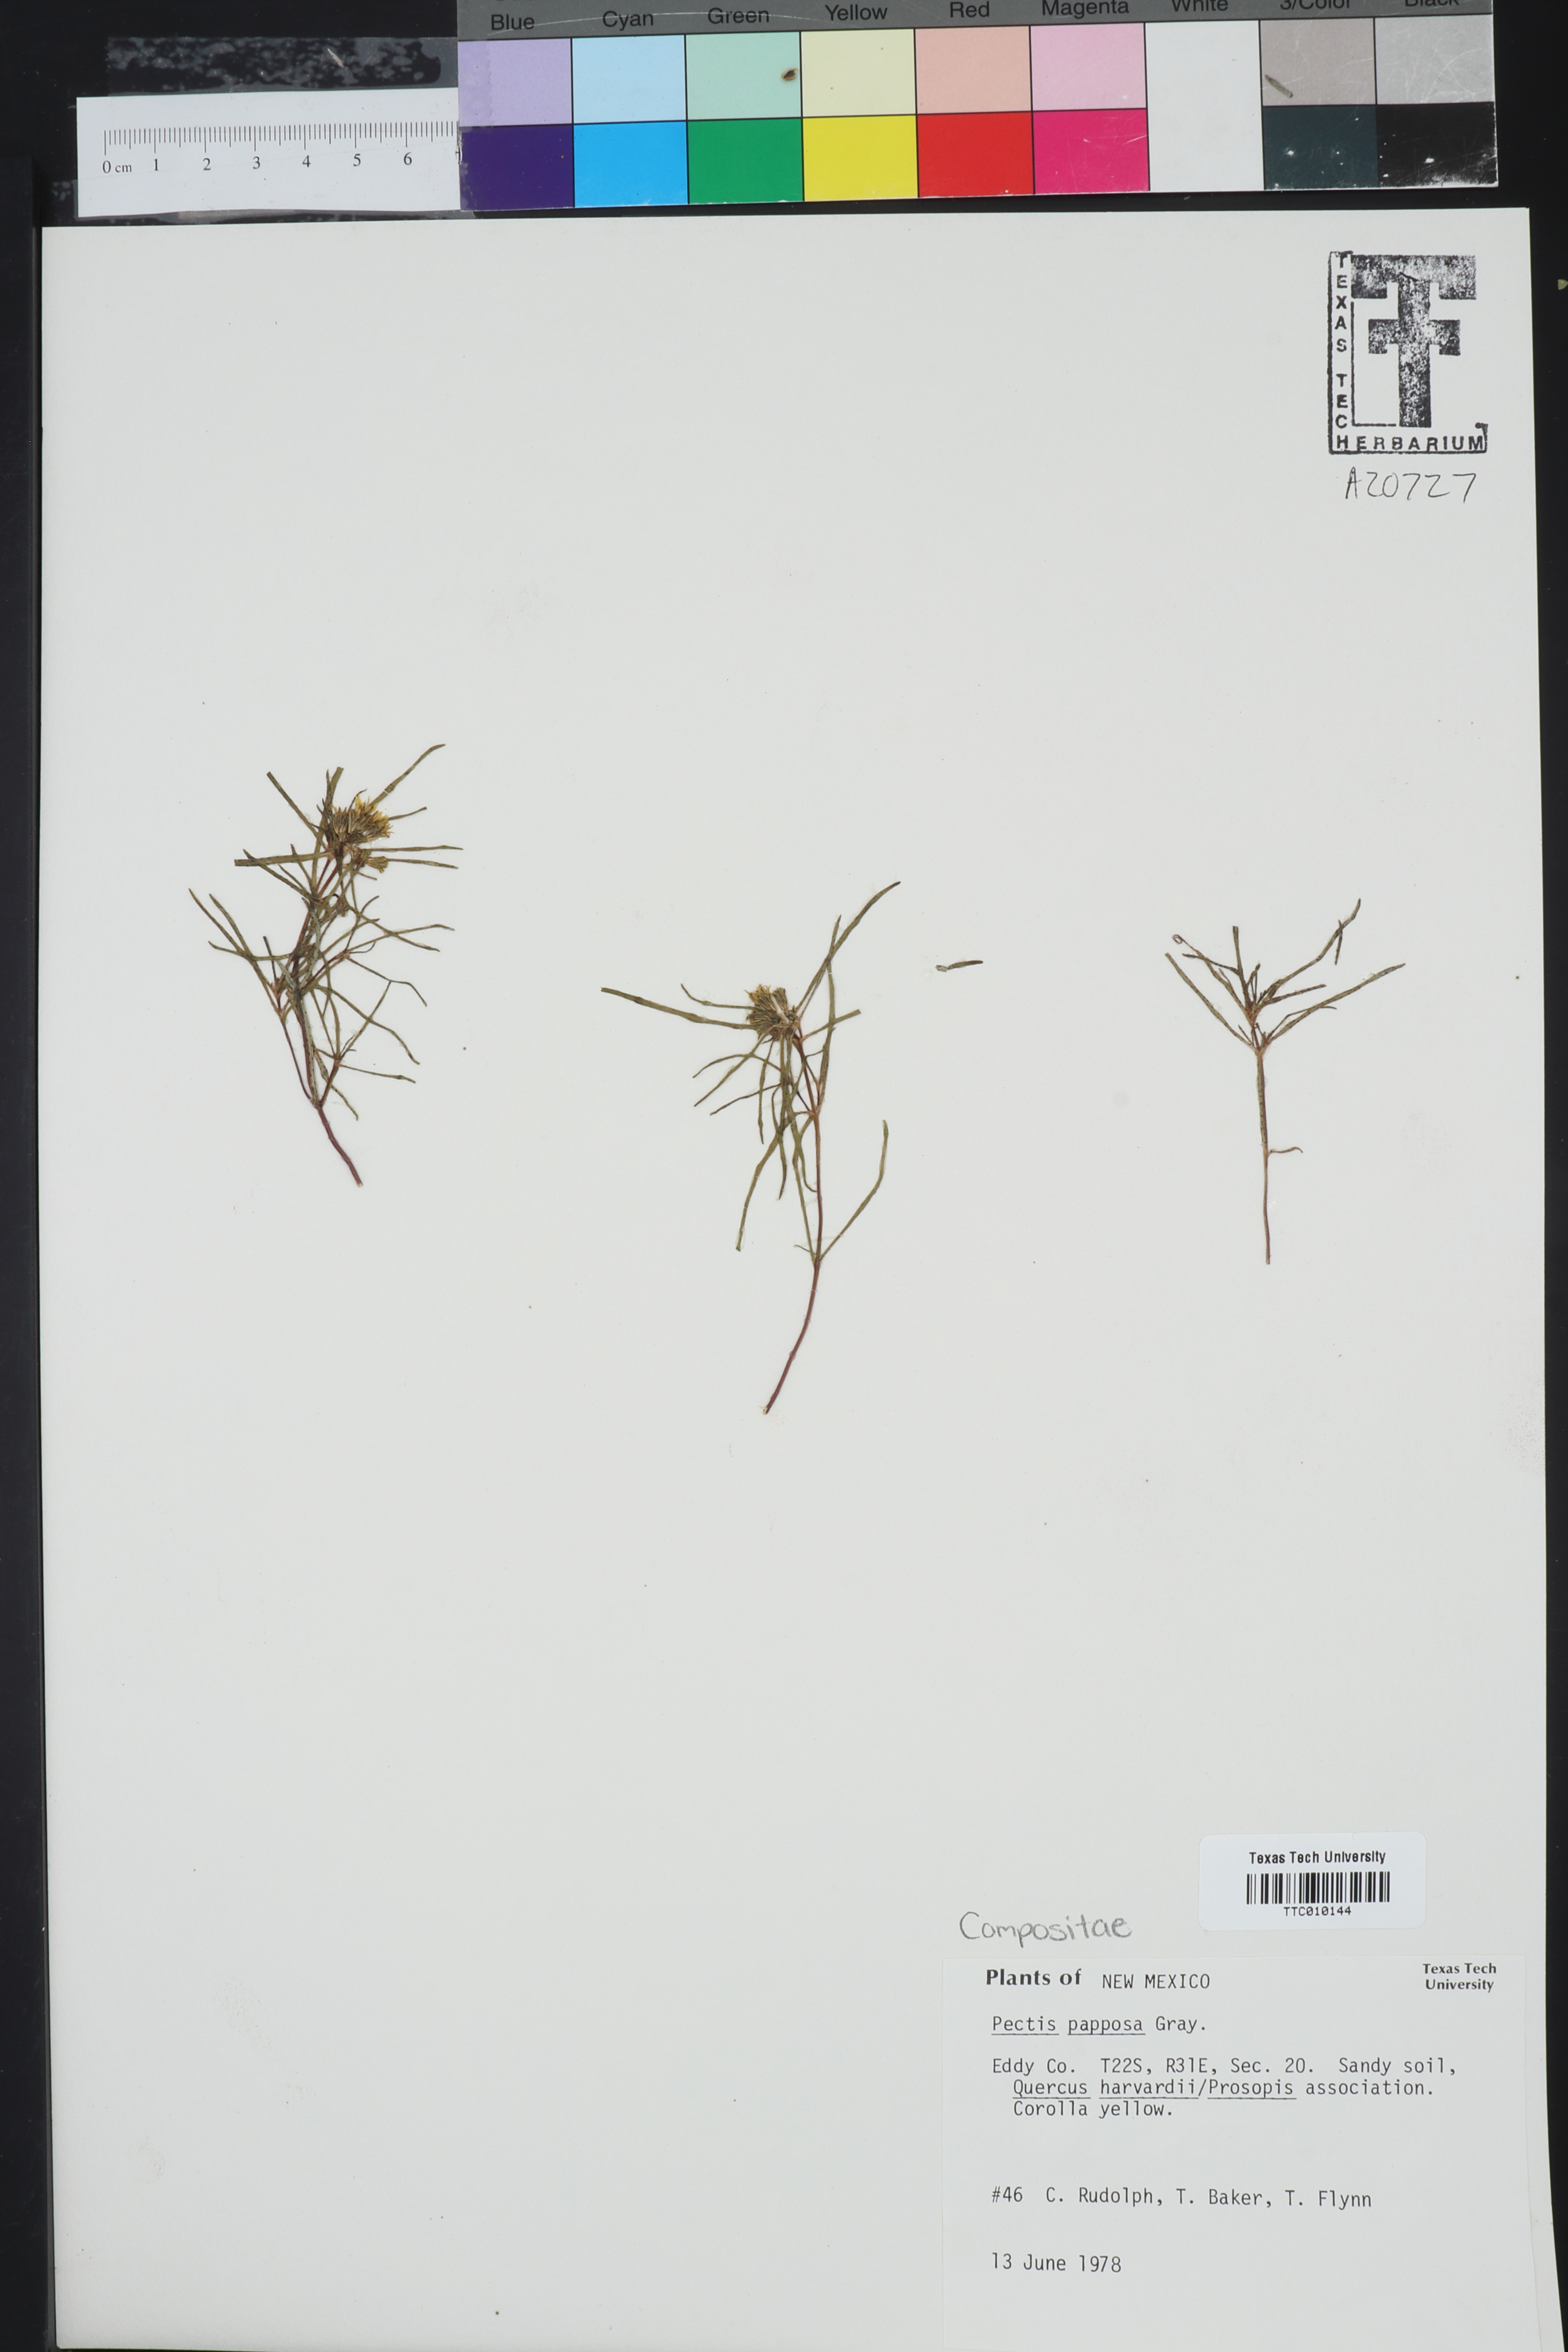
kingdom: Plantae
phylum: Tracheophyta
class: Magnoliopsida
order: Asterales
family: Asteraceae
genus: Pectis
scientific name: Pectis papposa
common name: Many-bristle chinchweed
